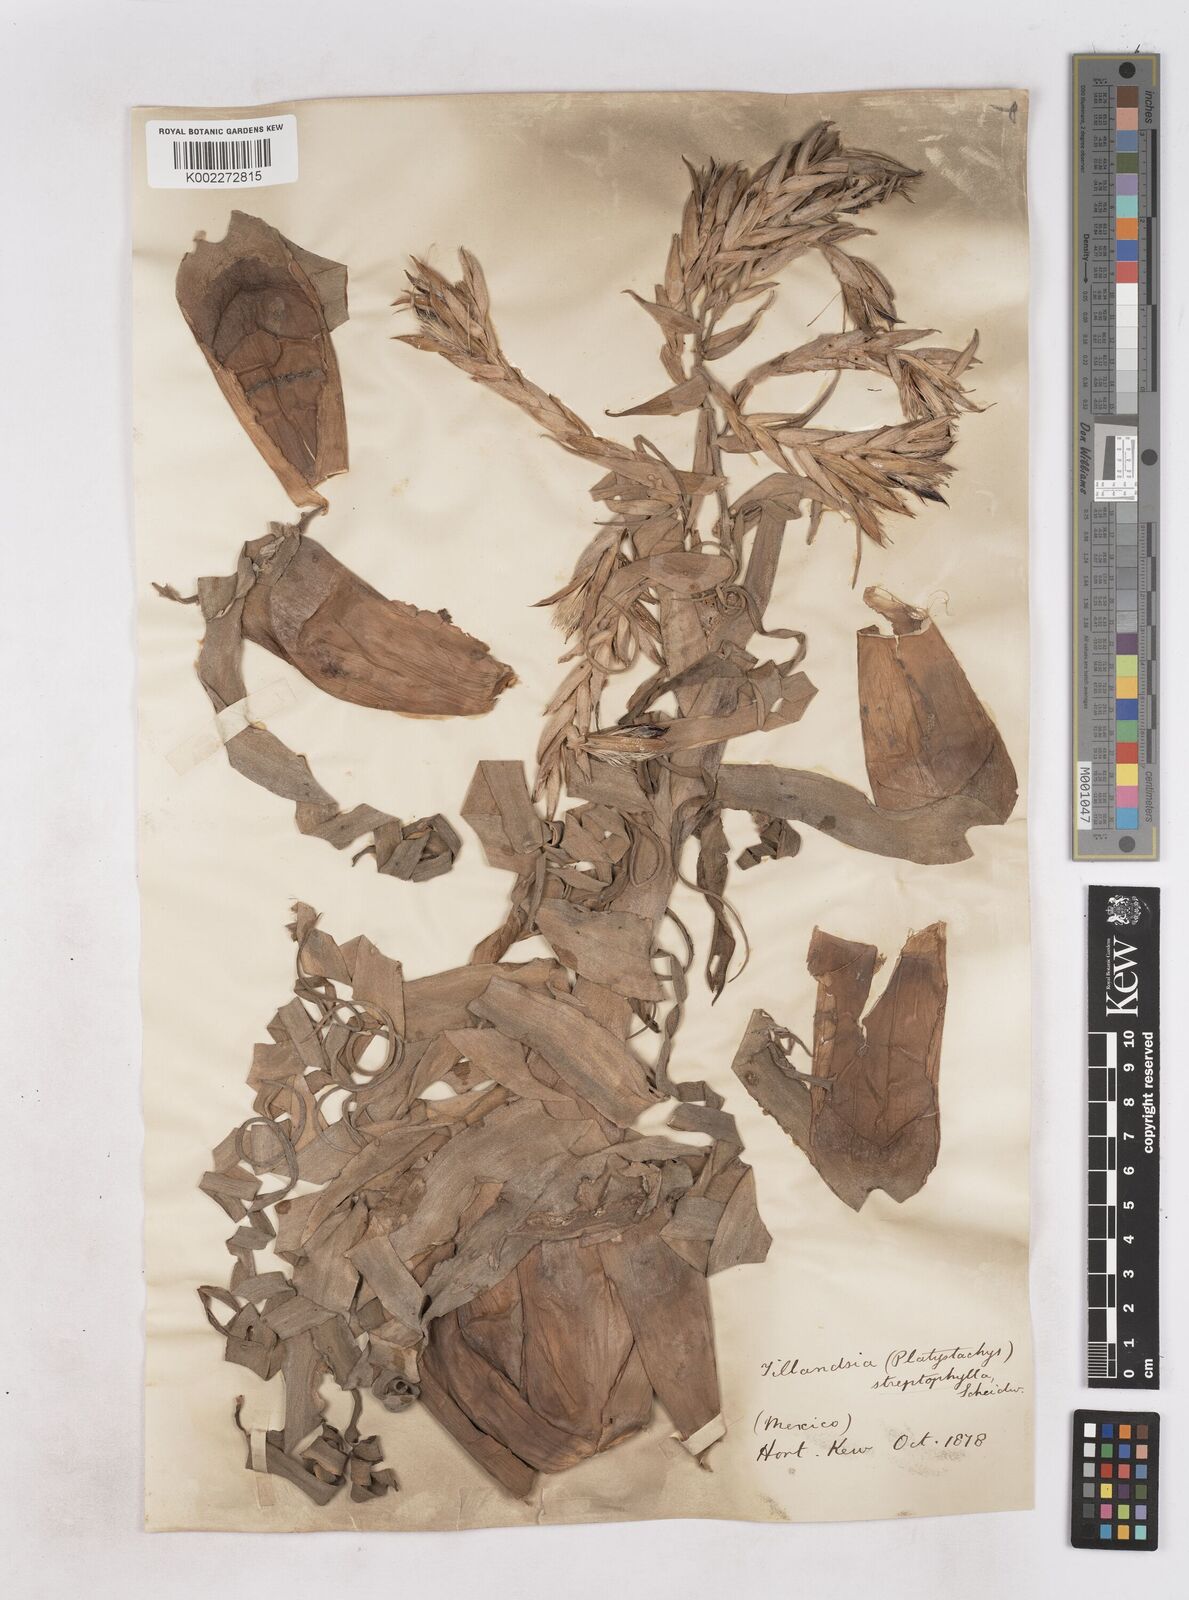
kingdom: Plantae
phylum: Tracheophyta
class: Liliopsida
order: Poales
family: Bromeliaceae
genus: Tillandsia
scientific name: Tillandsia streptophylla
